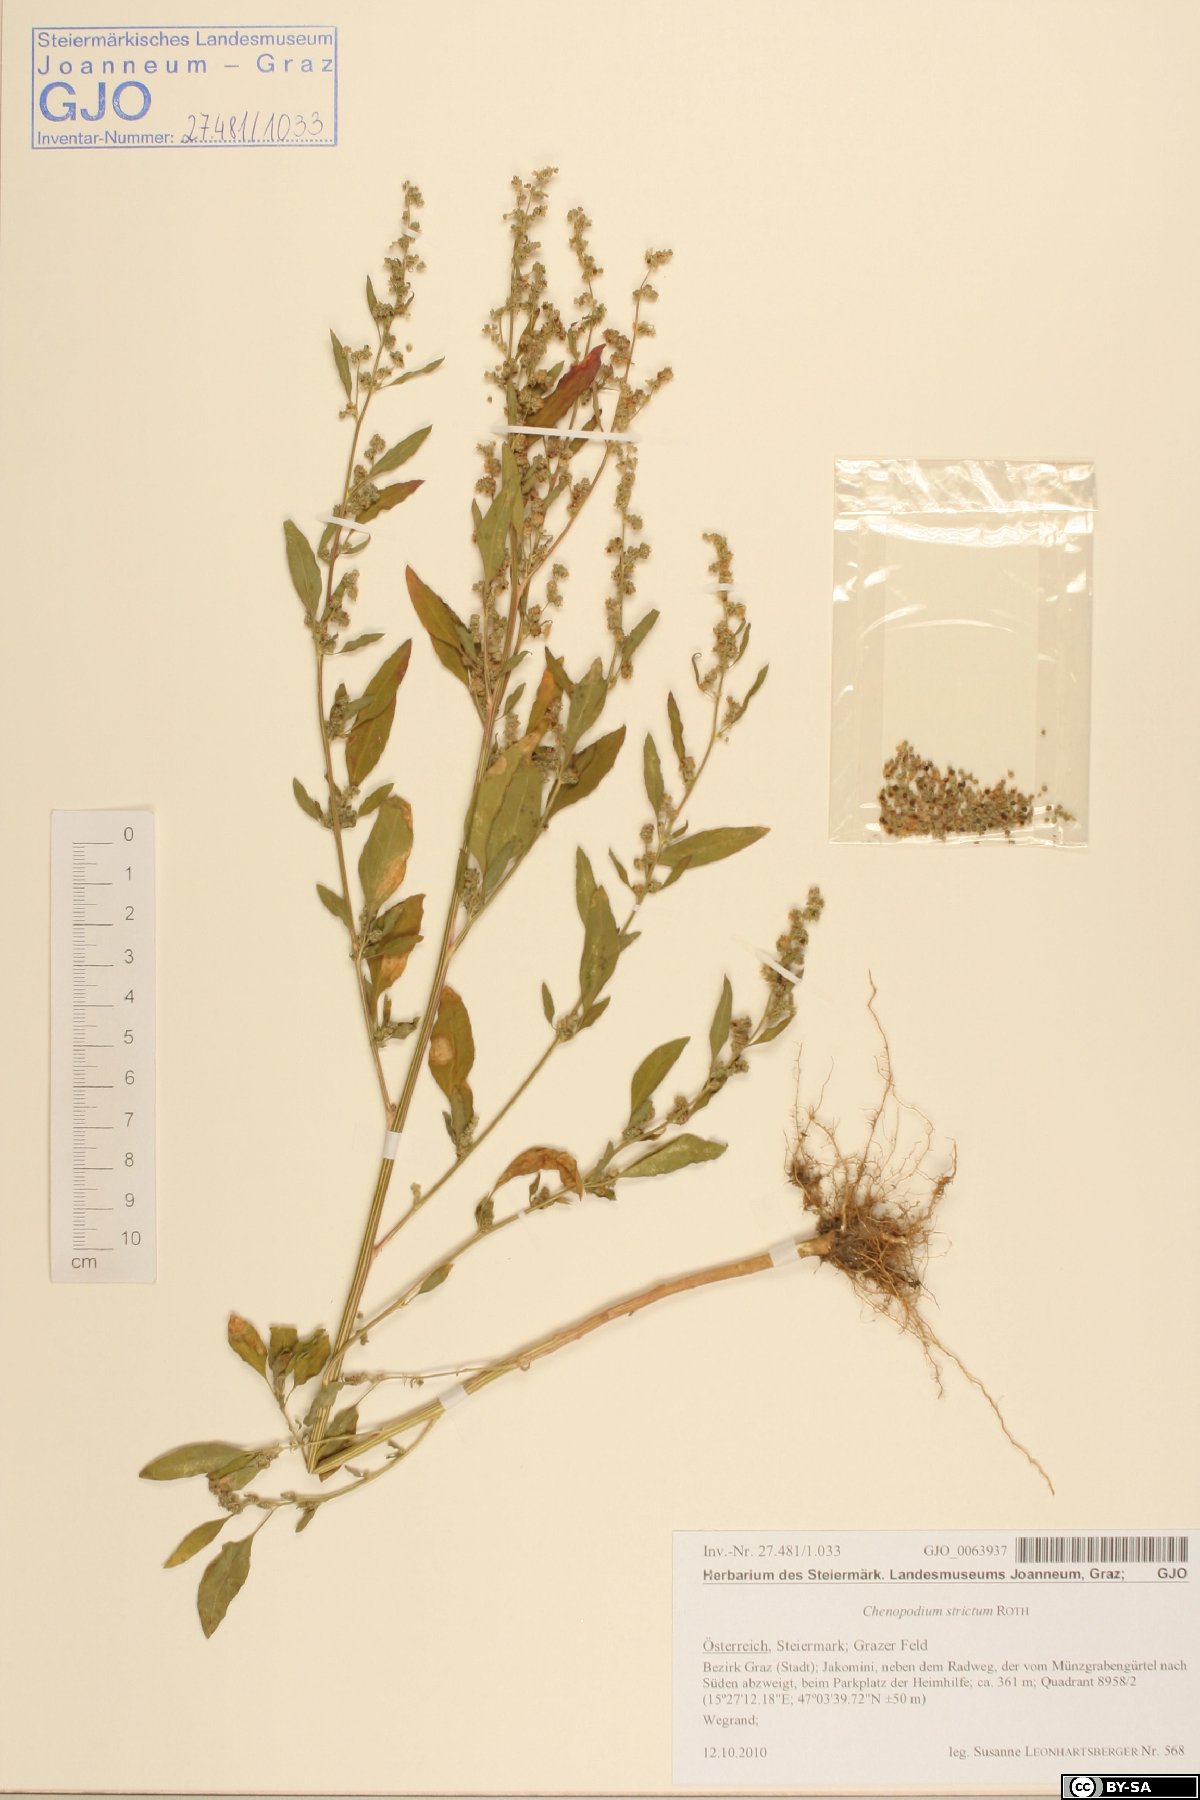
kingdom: Plantae
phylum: Tracheophyta
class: Magnoliopsida
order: Caryophyllales
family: Amaranthaceae
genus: Chenopodium
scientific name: Chenopodium album
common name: Fat-hen
